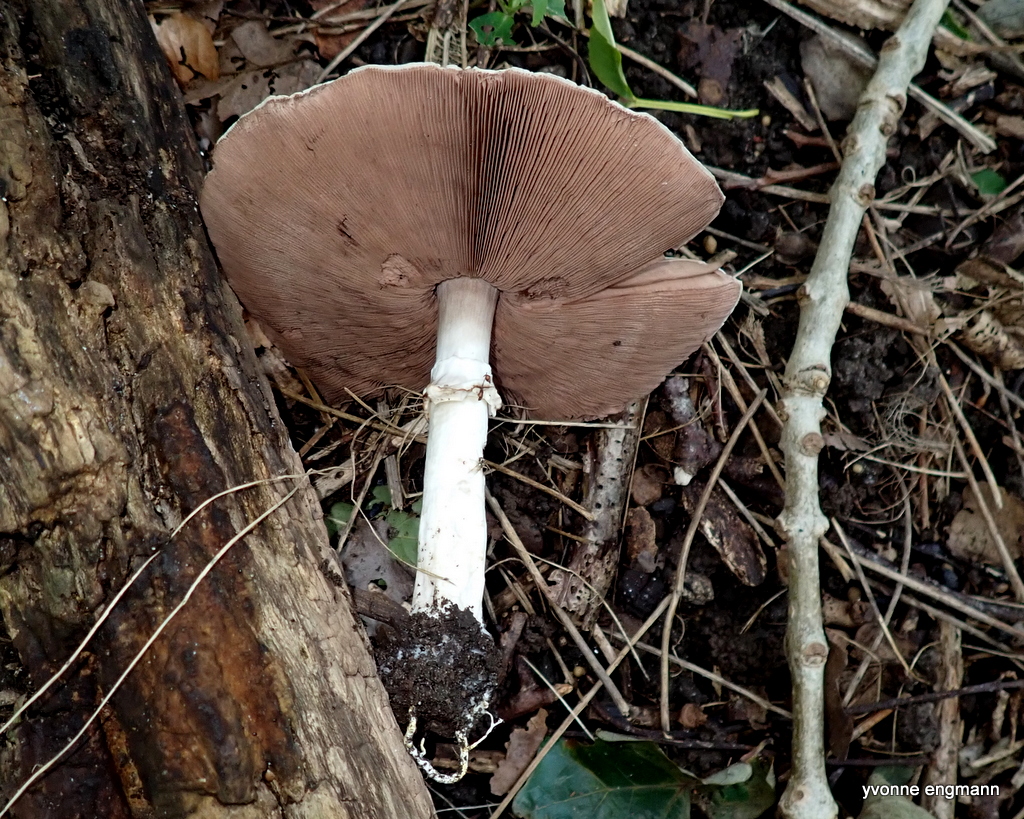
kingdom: Fungi
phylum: Basidiomycota
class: Agaricomycetes
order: Agaricales
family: Agaricaceae
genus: Agaricus
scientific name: Agaricus moelleri
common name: perlehøne-champignon
